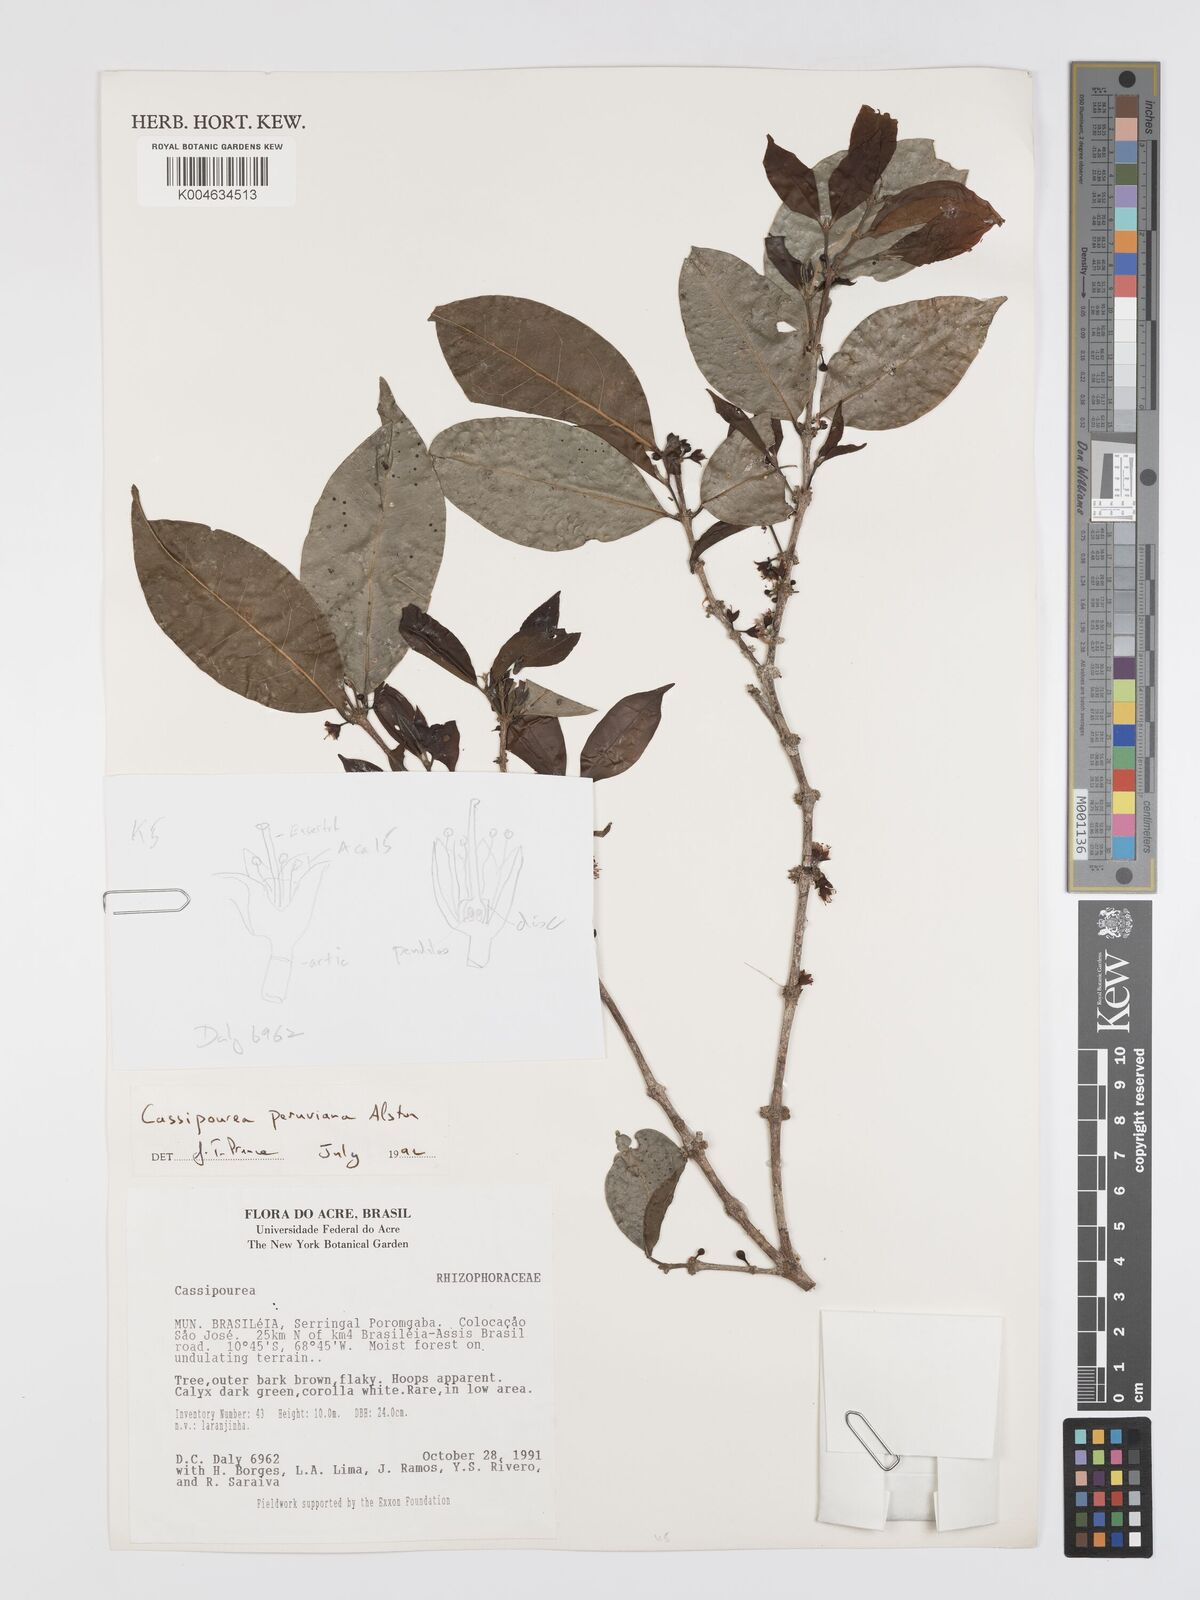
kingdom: Plantae
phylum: Tracheophyta
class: Magnoliopsida
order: Malpighiales
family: Rhizophoraceae
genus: Cassipourea
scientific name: Cassipourea peruviana
